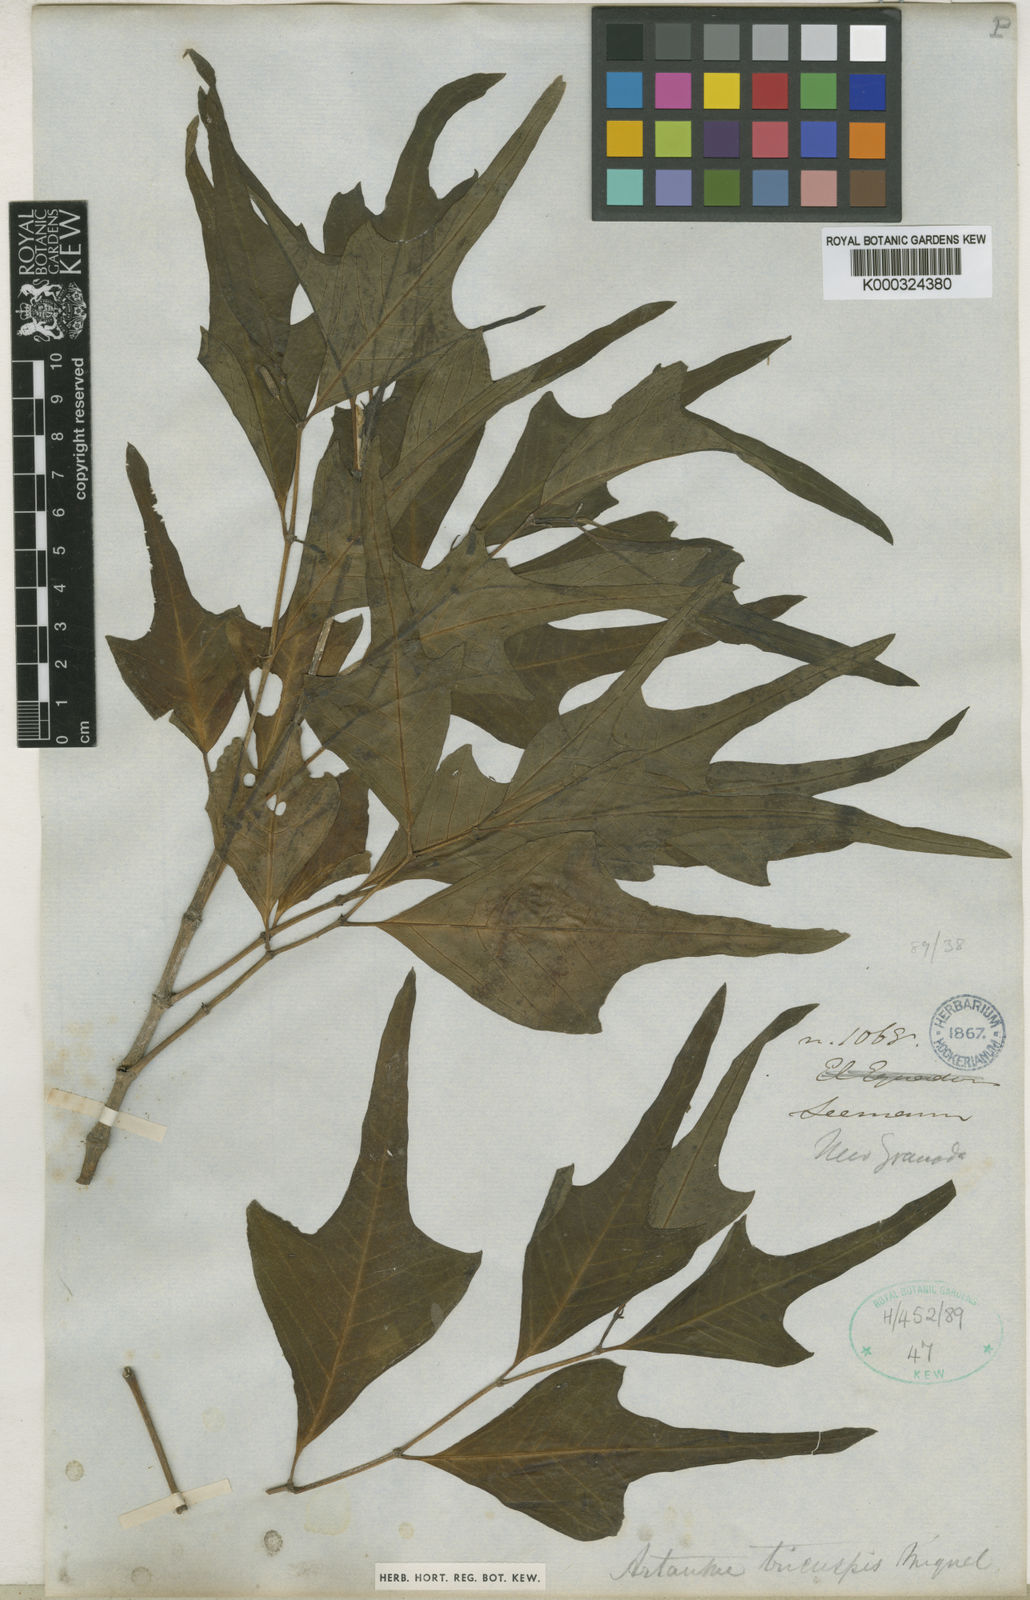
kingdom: Plantae
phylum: Tracheophyta
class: Magnoliopsida
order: Piperales
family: Piperaceae
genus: Piper
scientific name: Piper tricuspe
